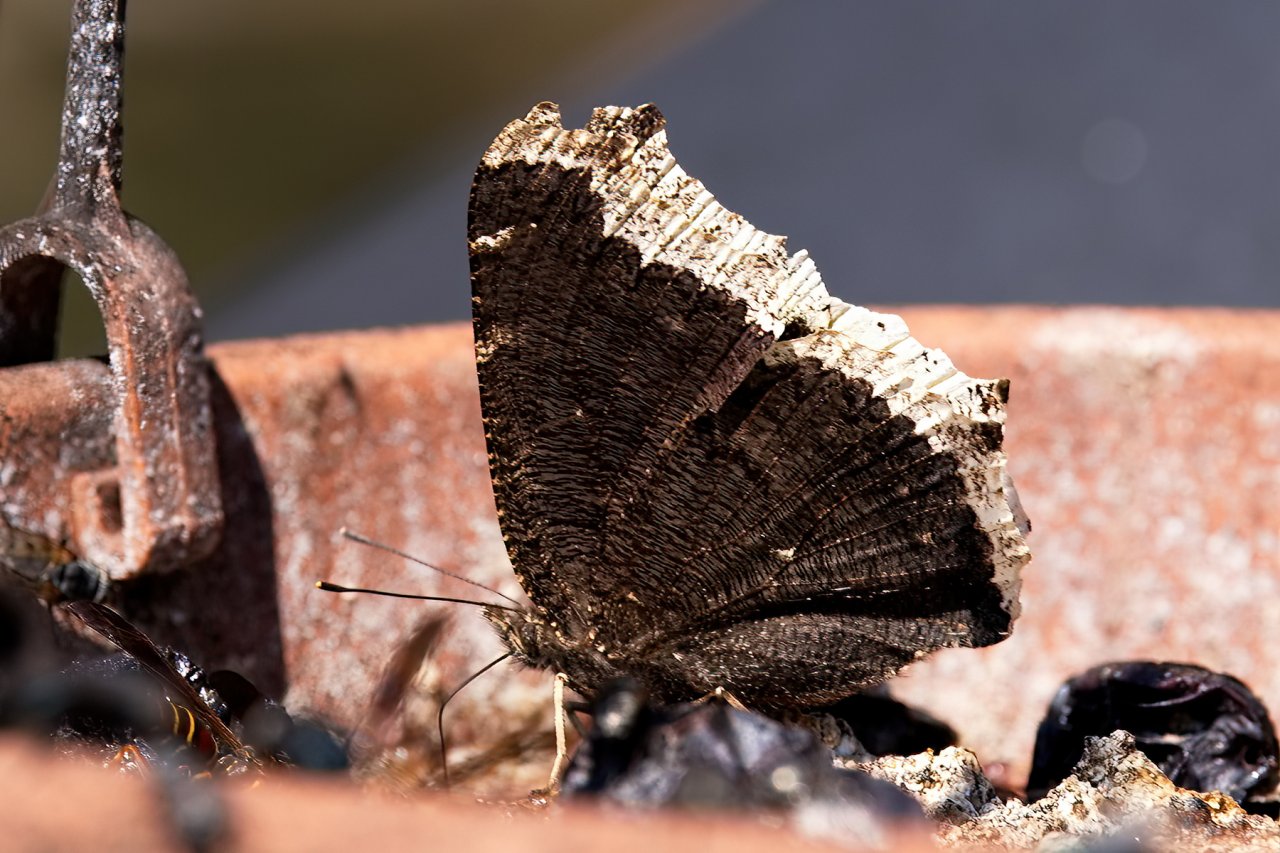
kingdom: Animalia
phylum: Arthropoda
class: Insecta
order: Lepidoptera
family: Nymphalidae
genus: Nymphalis
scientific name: Nymphalis antiopa
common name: Mourning Cloak
